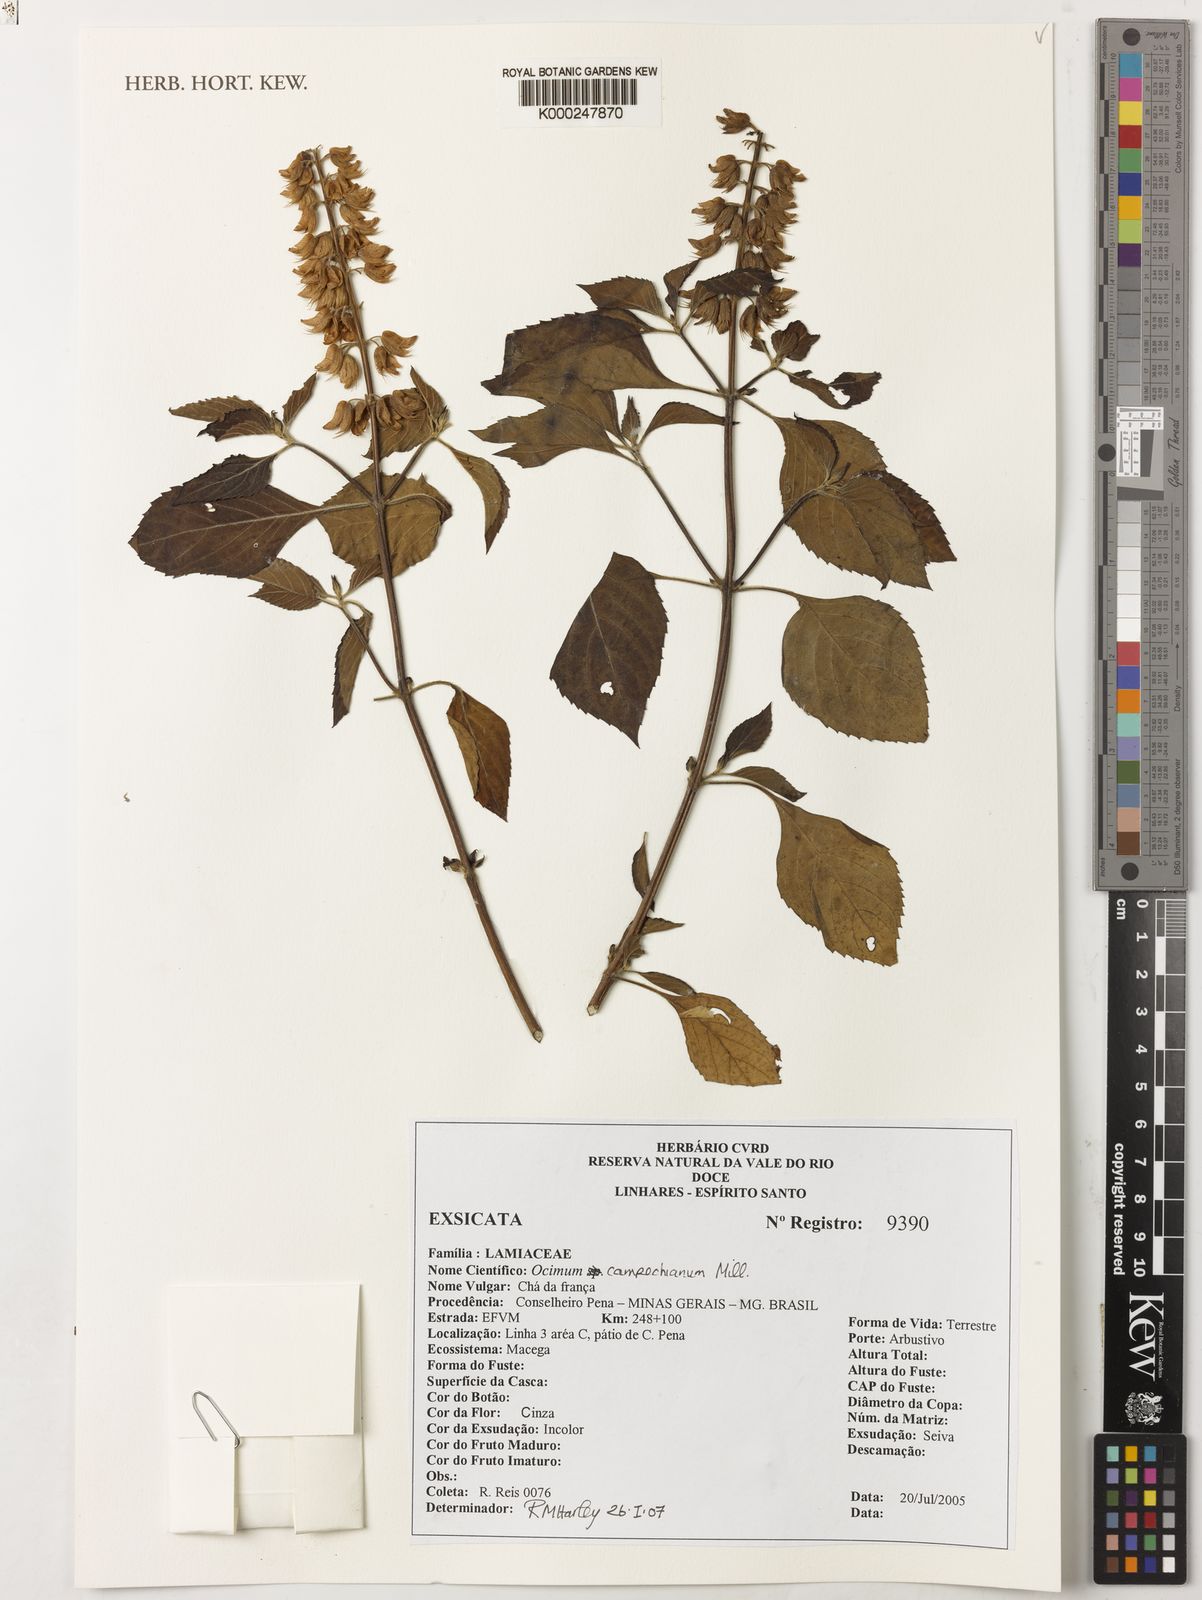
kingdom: Plantae
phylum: Tracheophyta
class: Magnoliopsida
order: Lamiales
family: Lamiaceae
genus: Ocimum
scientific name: Ocimum campechianum
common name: Mosquito basil
